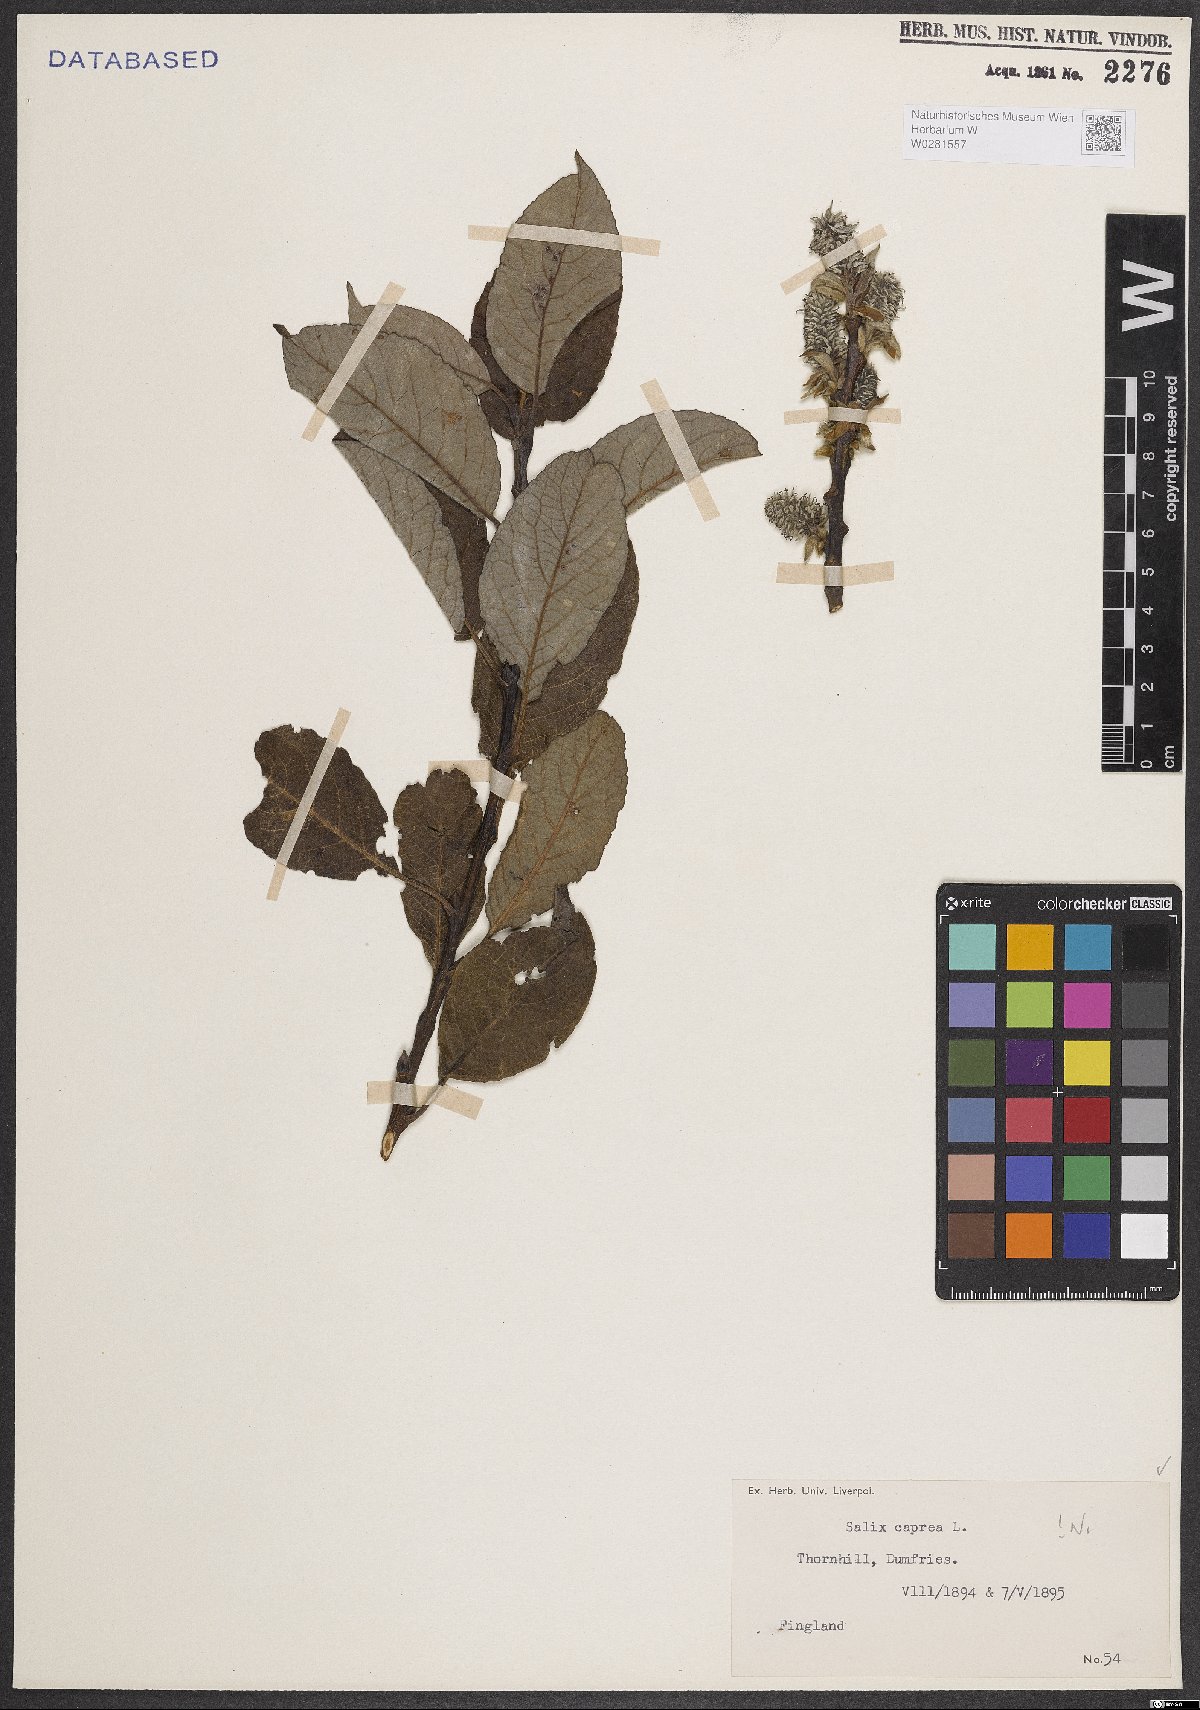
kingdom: Plantae
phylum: Tracheophyta
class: Magnoliopsida
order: Malpighiales
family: Salicaceae
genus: Salix
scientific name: Salix caprea
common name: Goat willow
